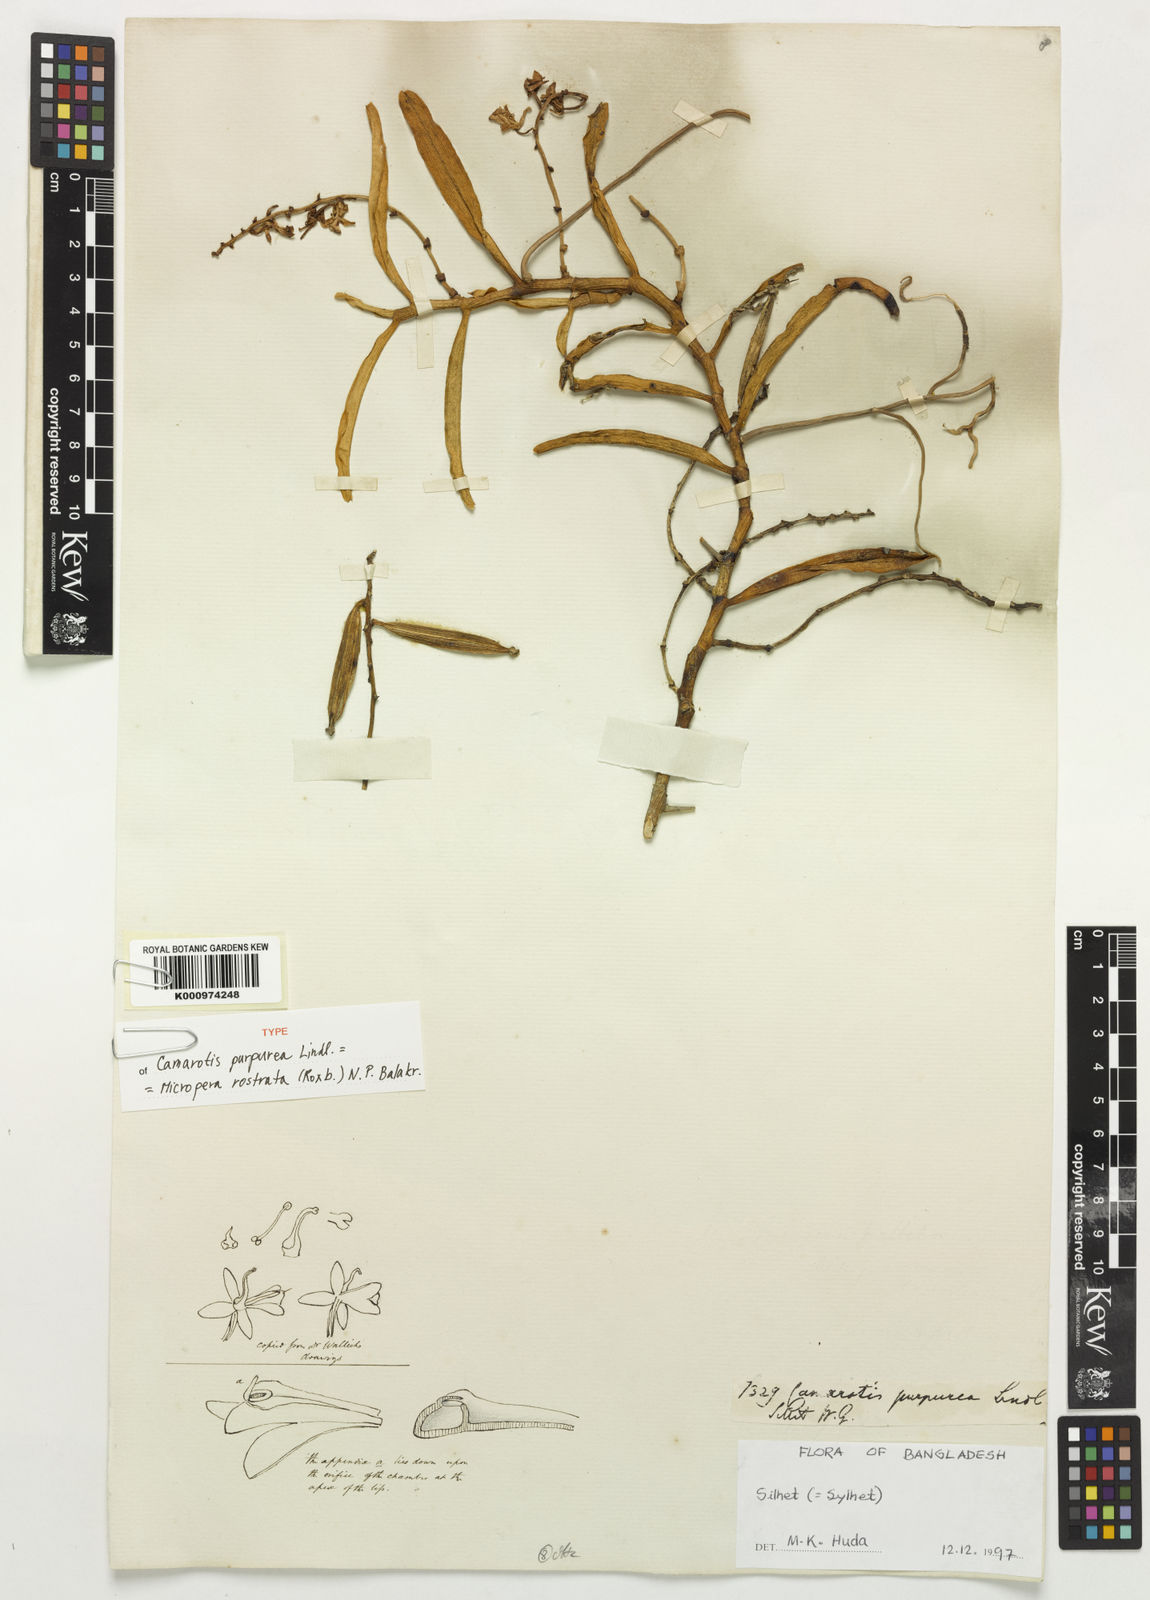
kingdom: Plantae
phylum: Tracheophyta
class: Liliopsida
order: Asparagales
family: Orchidaceae
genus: Micropera
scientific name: Micropera rostrata
